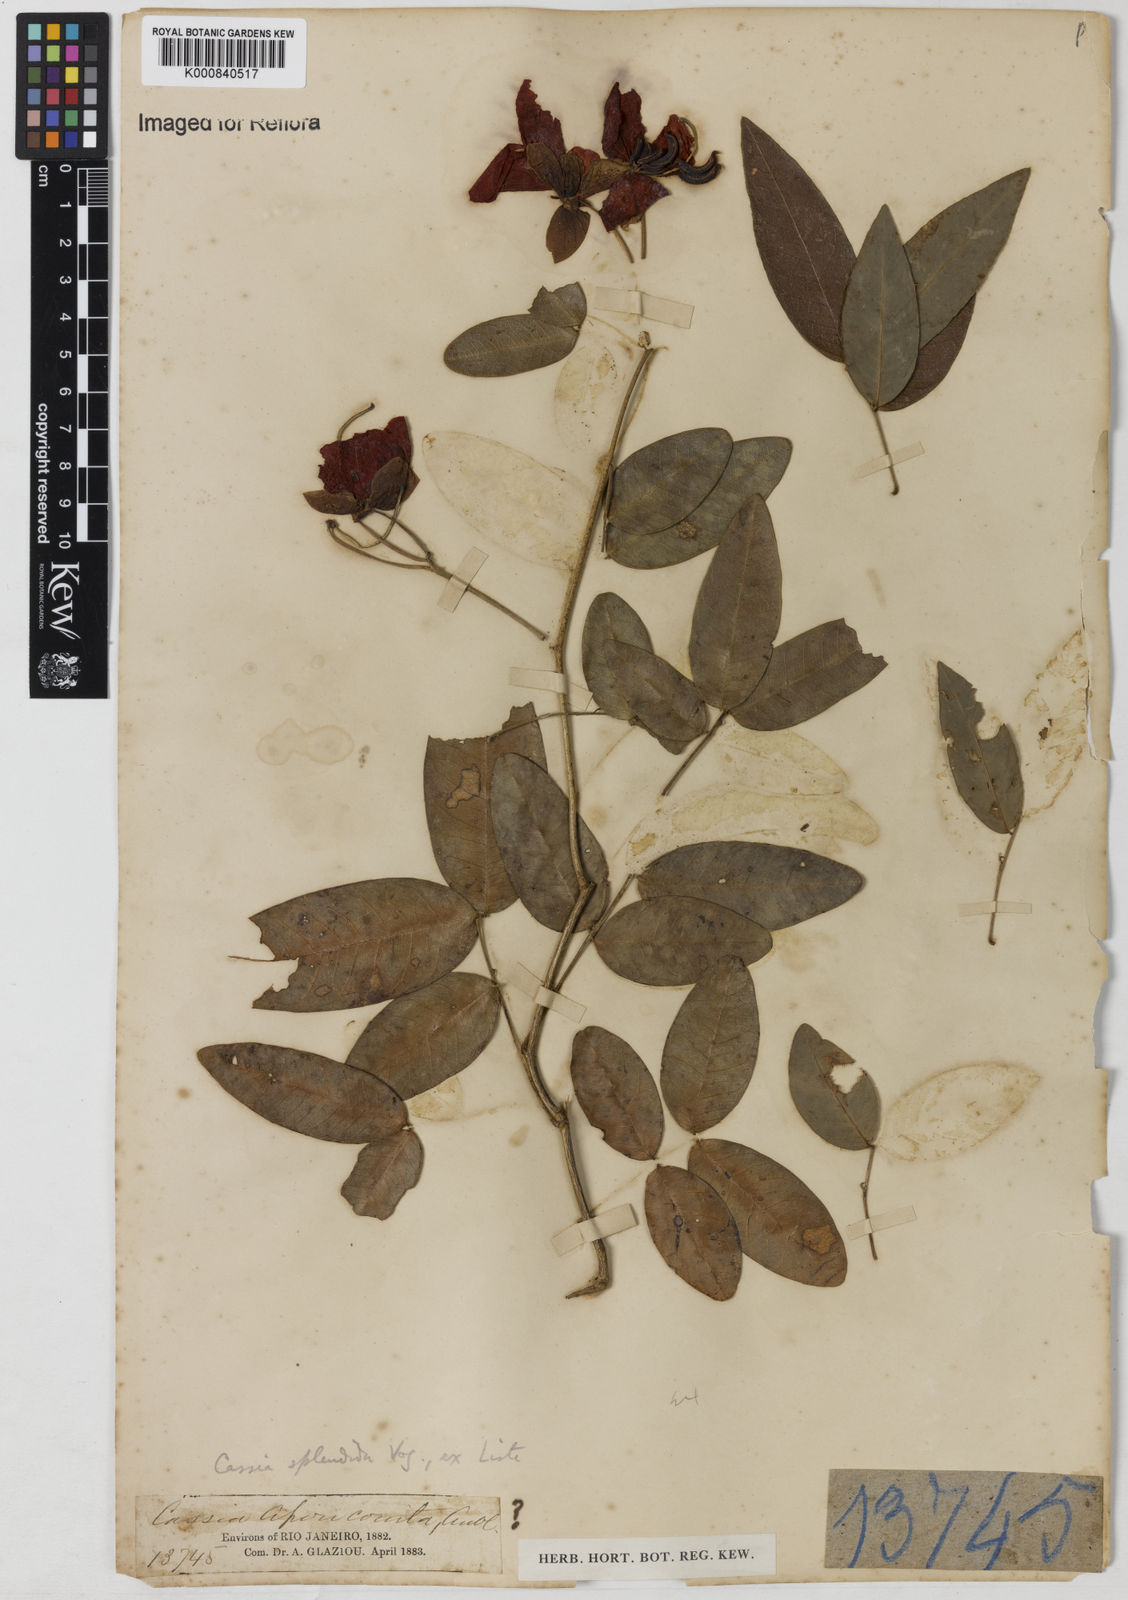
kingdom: Plantae
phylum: Tracheophyta
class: Magnoliopsida
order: Fabales
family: Fabaceae
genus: Senna
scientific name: Senna splendida
